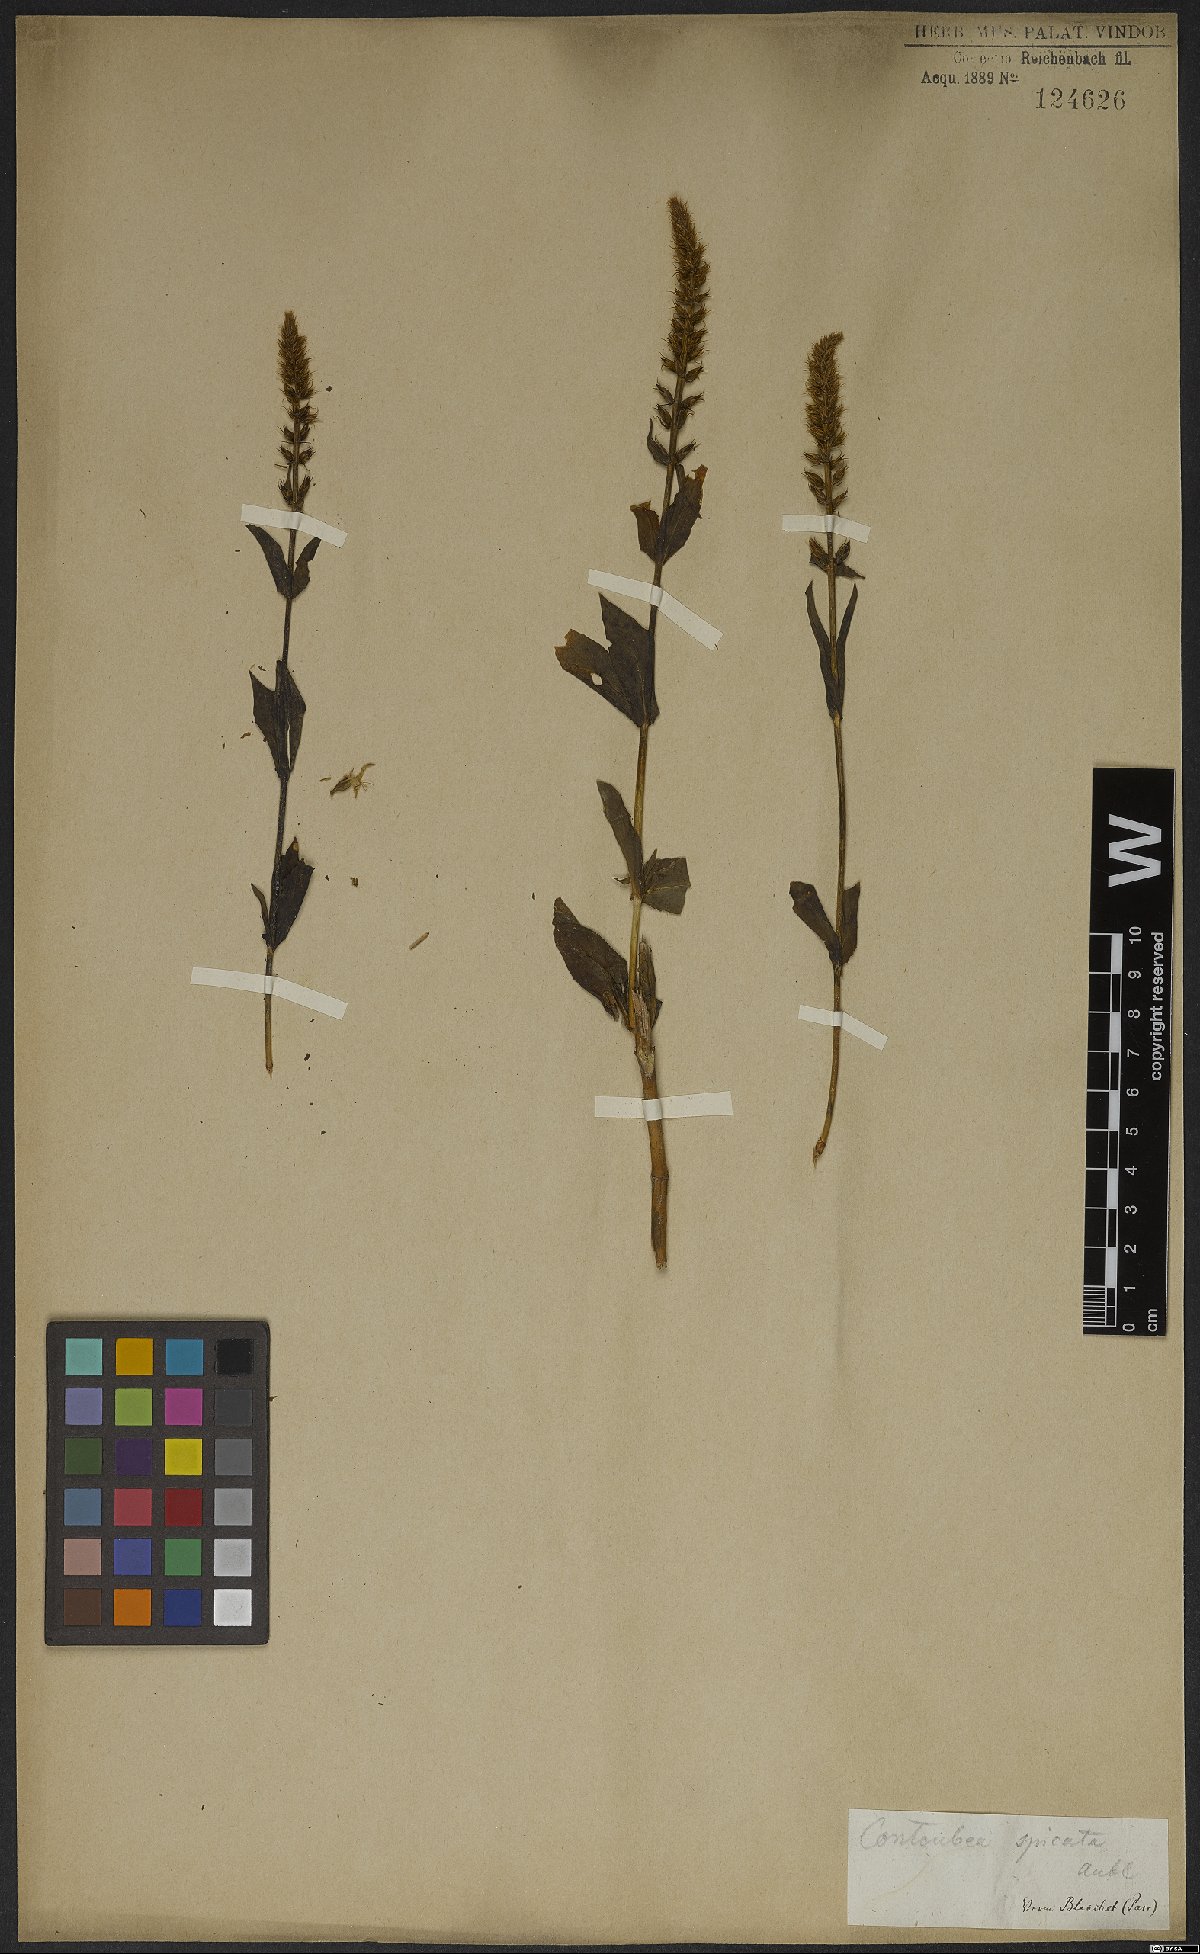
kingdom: Plantae
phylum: Tracheophyta
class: Magnoliopsida
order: Gentianales
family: Gentianaceae
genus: Coutoubea
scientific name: Coutoubea spicata
